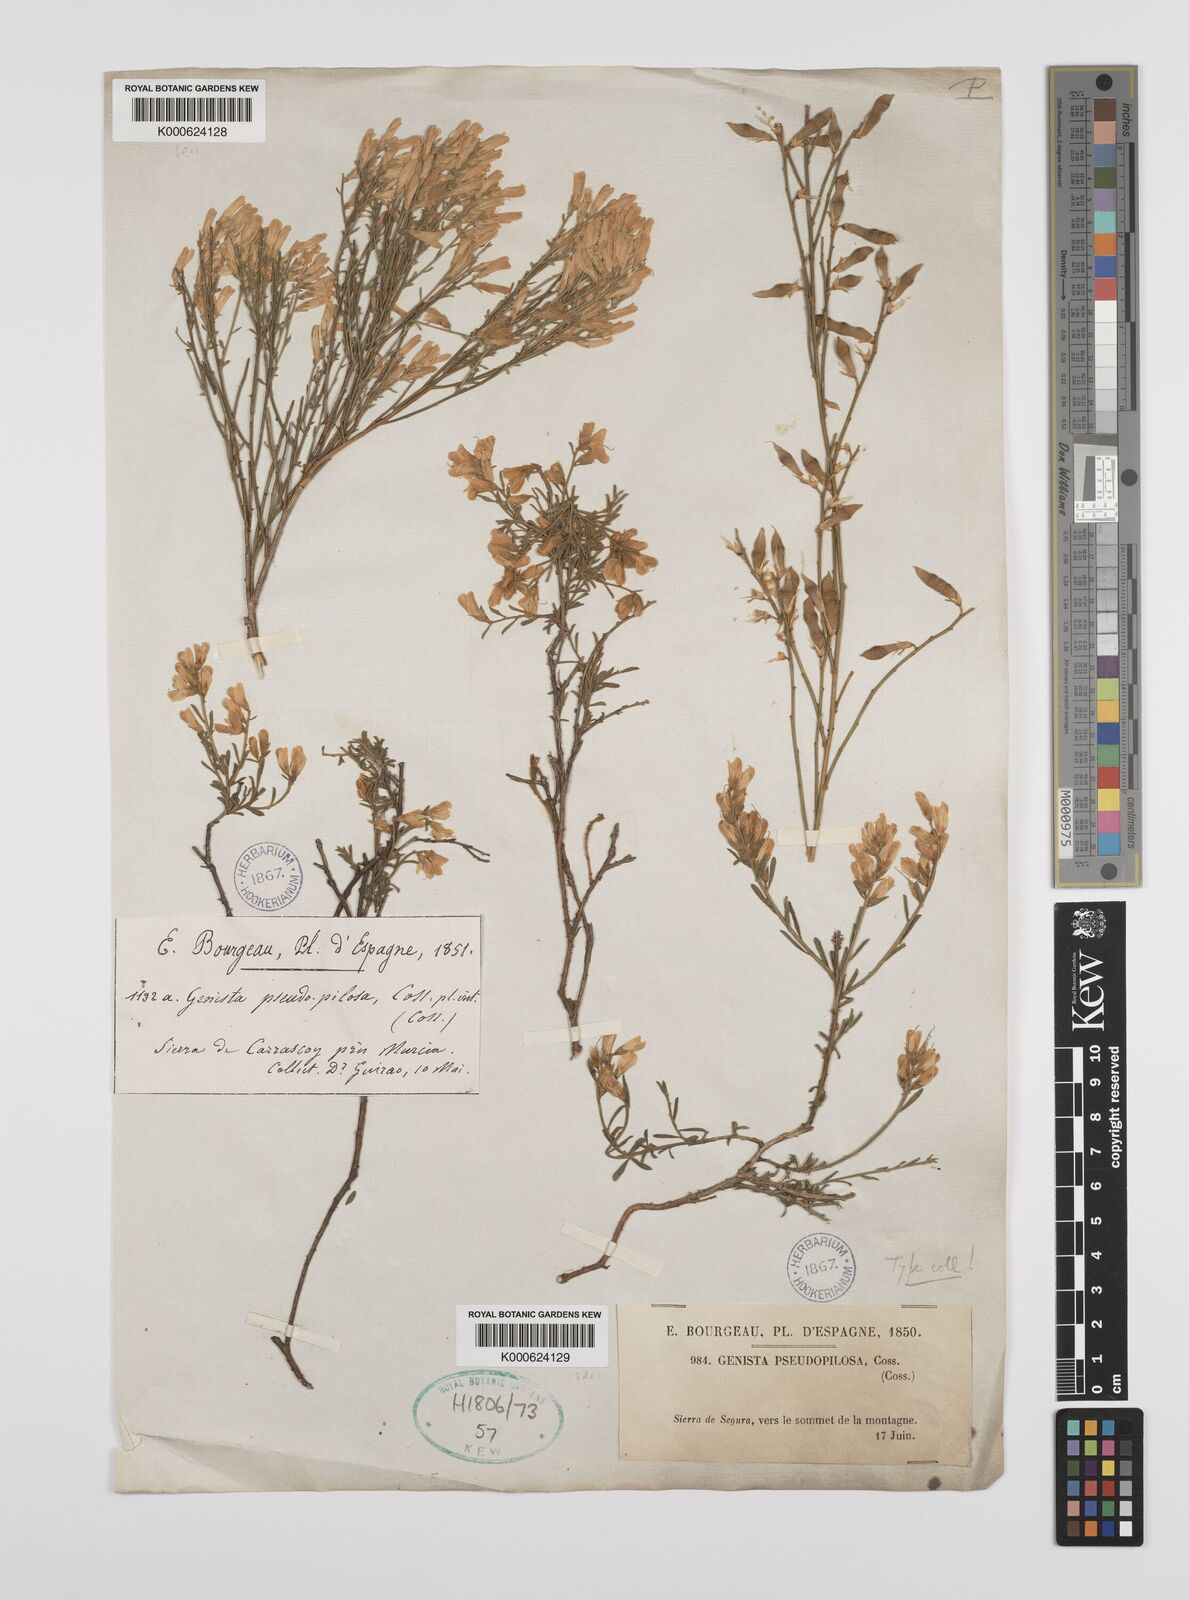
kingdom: Plantae
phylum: Tracheophyta
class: Magnoliopsida
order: Fabales
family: Fabaceae
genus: Genista
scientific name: Genista pseudopilosa
